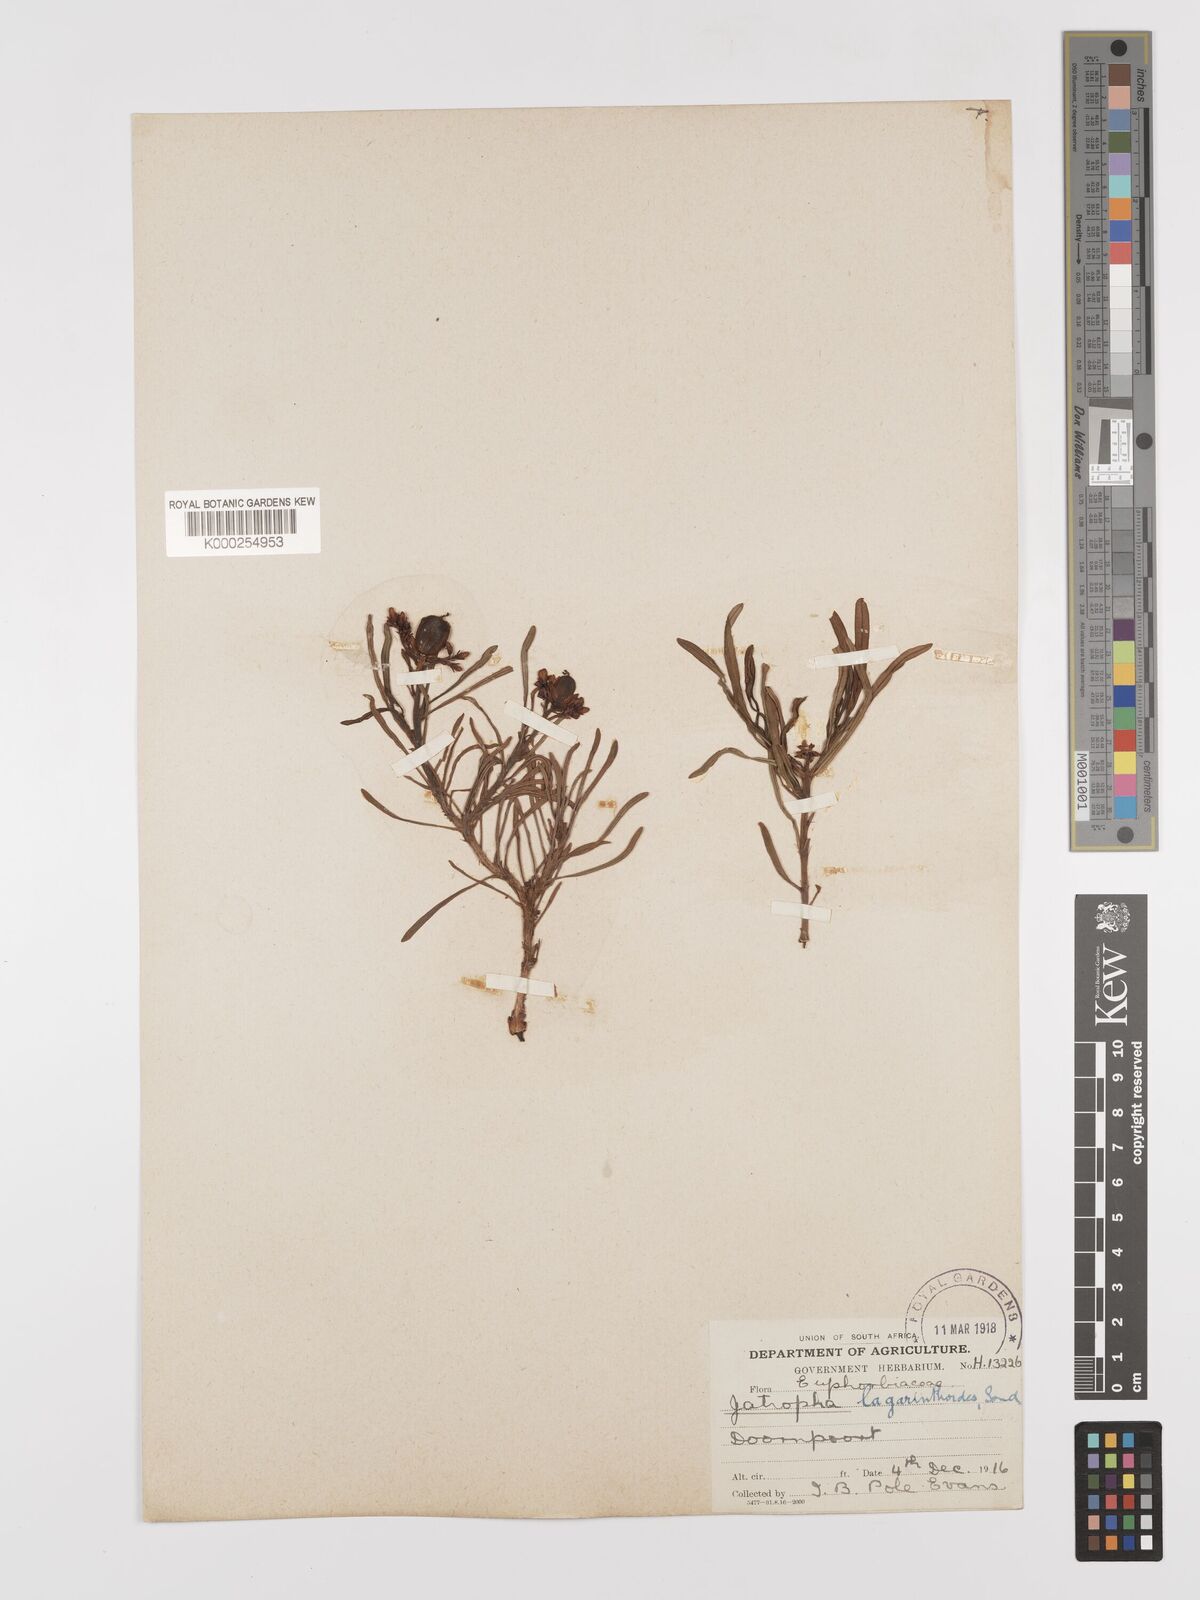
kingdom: Plantae
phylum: Tracheophyta
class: Magnoliopsida
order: Malpighiales
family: Euphorbiaceae
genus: Jatropha
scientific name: Jatropha lagarinthoides
